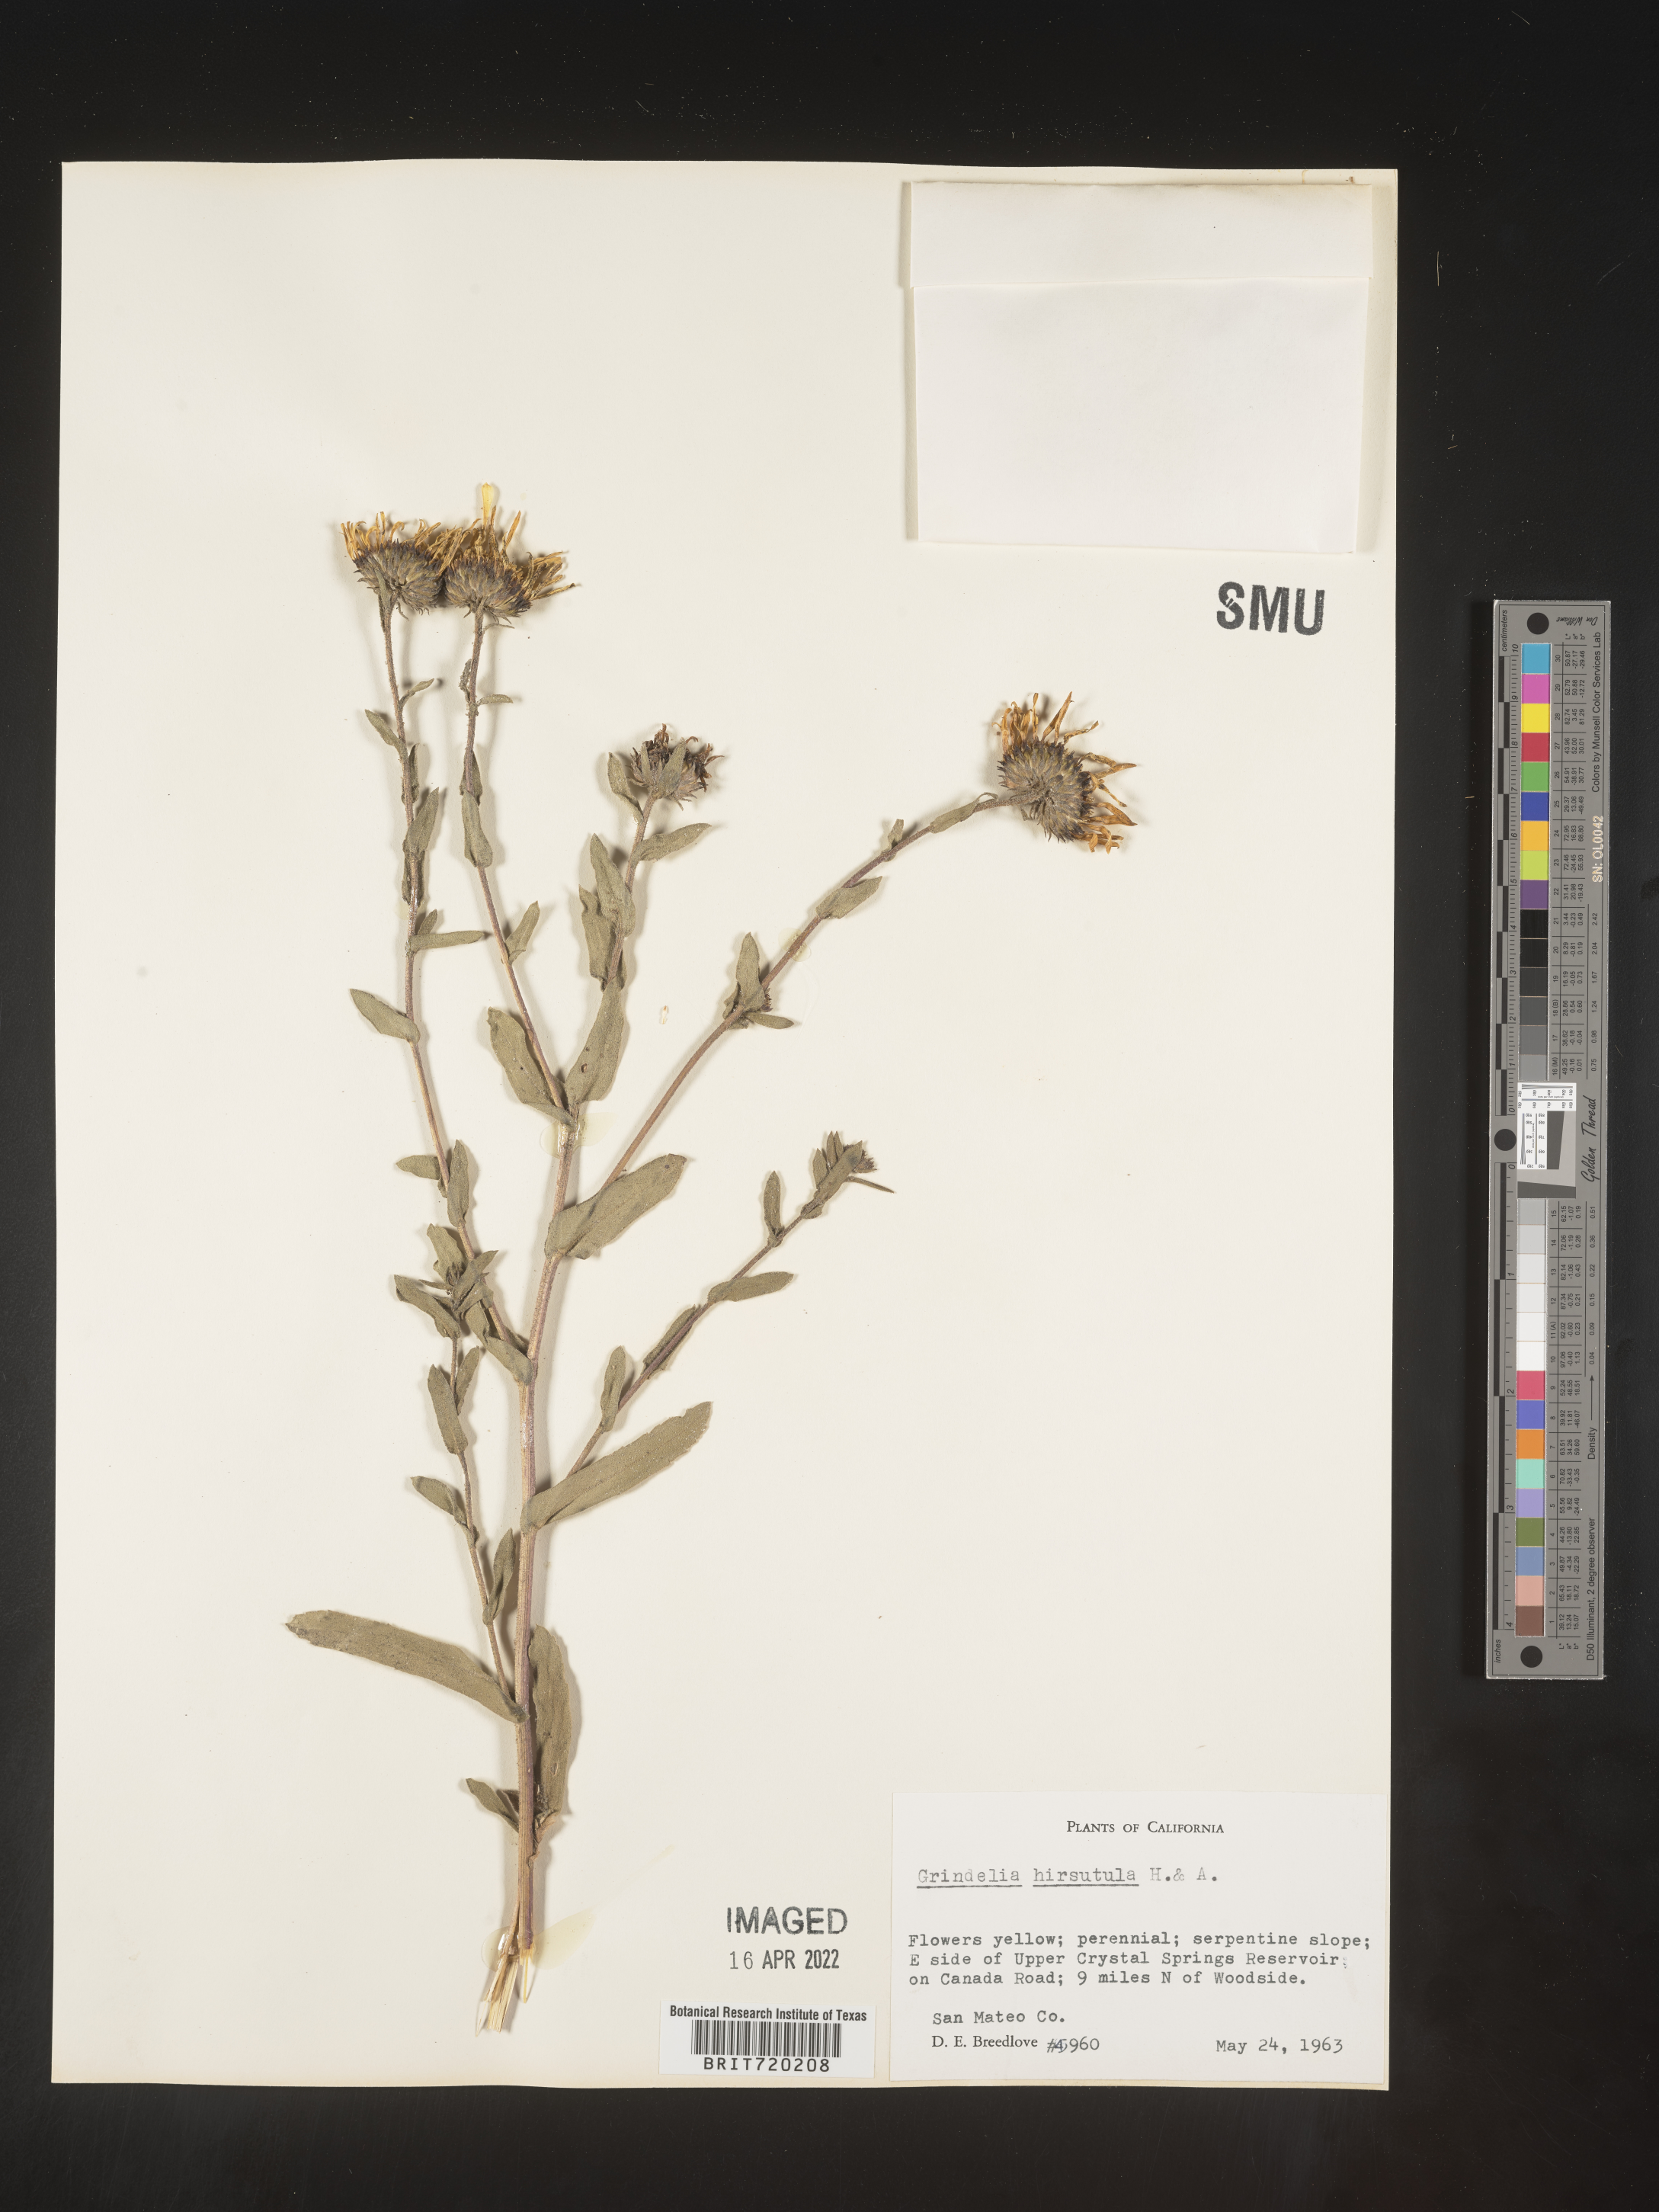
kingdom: Plantae
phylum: Tracheophyta
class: Magnoliopsida
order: Asterales
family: Asteraceae
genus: Grindelia
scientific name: Grindelia hirsutula
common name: Hairy gumweed
